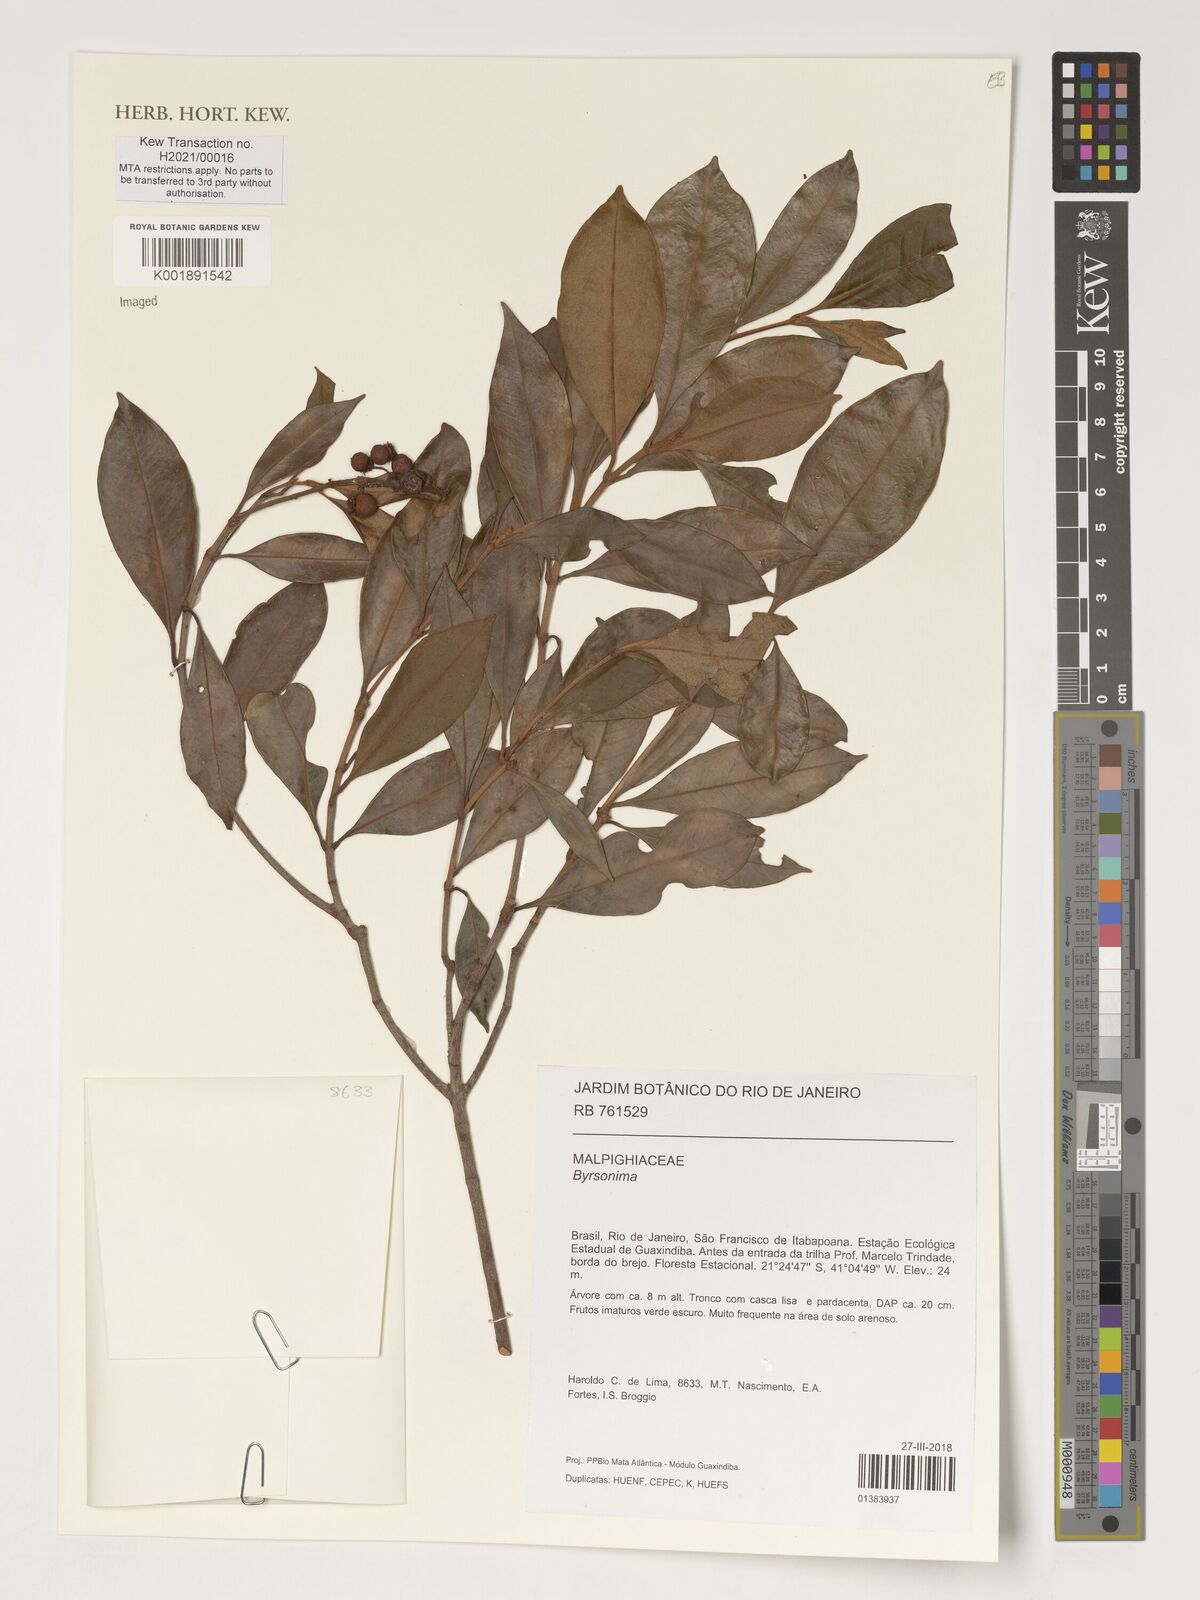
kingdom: Plantae
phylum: Tracheophyta
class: Magnoliopsida
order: Malpighiales
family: Malpighiaceae
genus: Byrsonima
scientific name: Byrsonima
